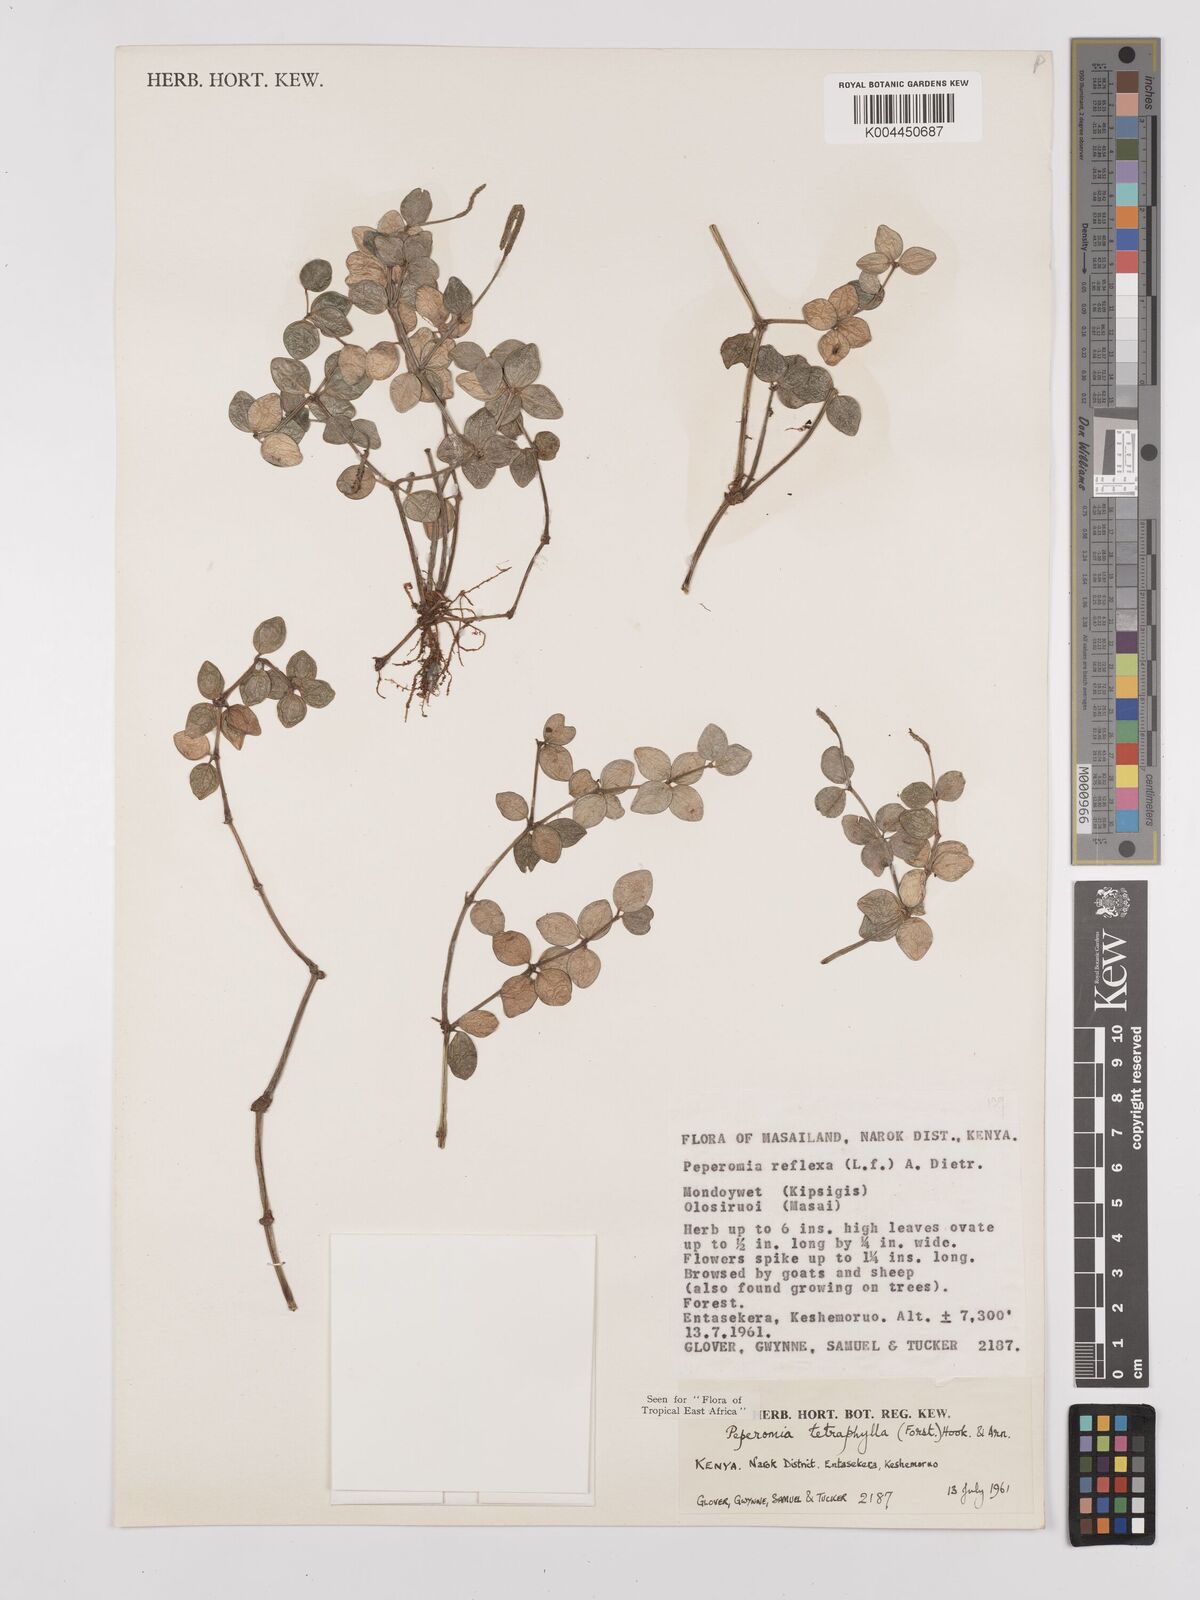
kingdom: Plantae
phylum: Tracheophyta
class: Magnoliopsida
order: Piperales
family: Piperaceae
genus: Peperomia
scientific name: Peperomia tetraphylla
